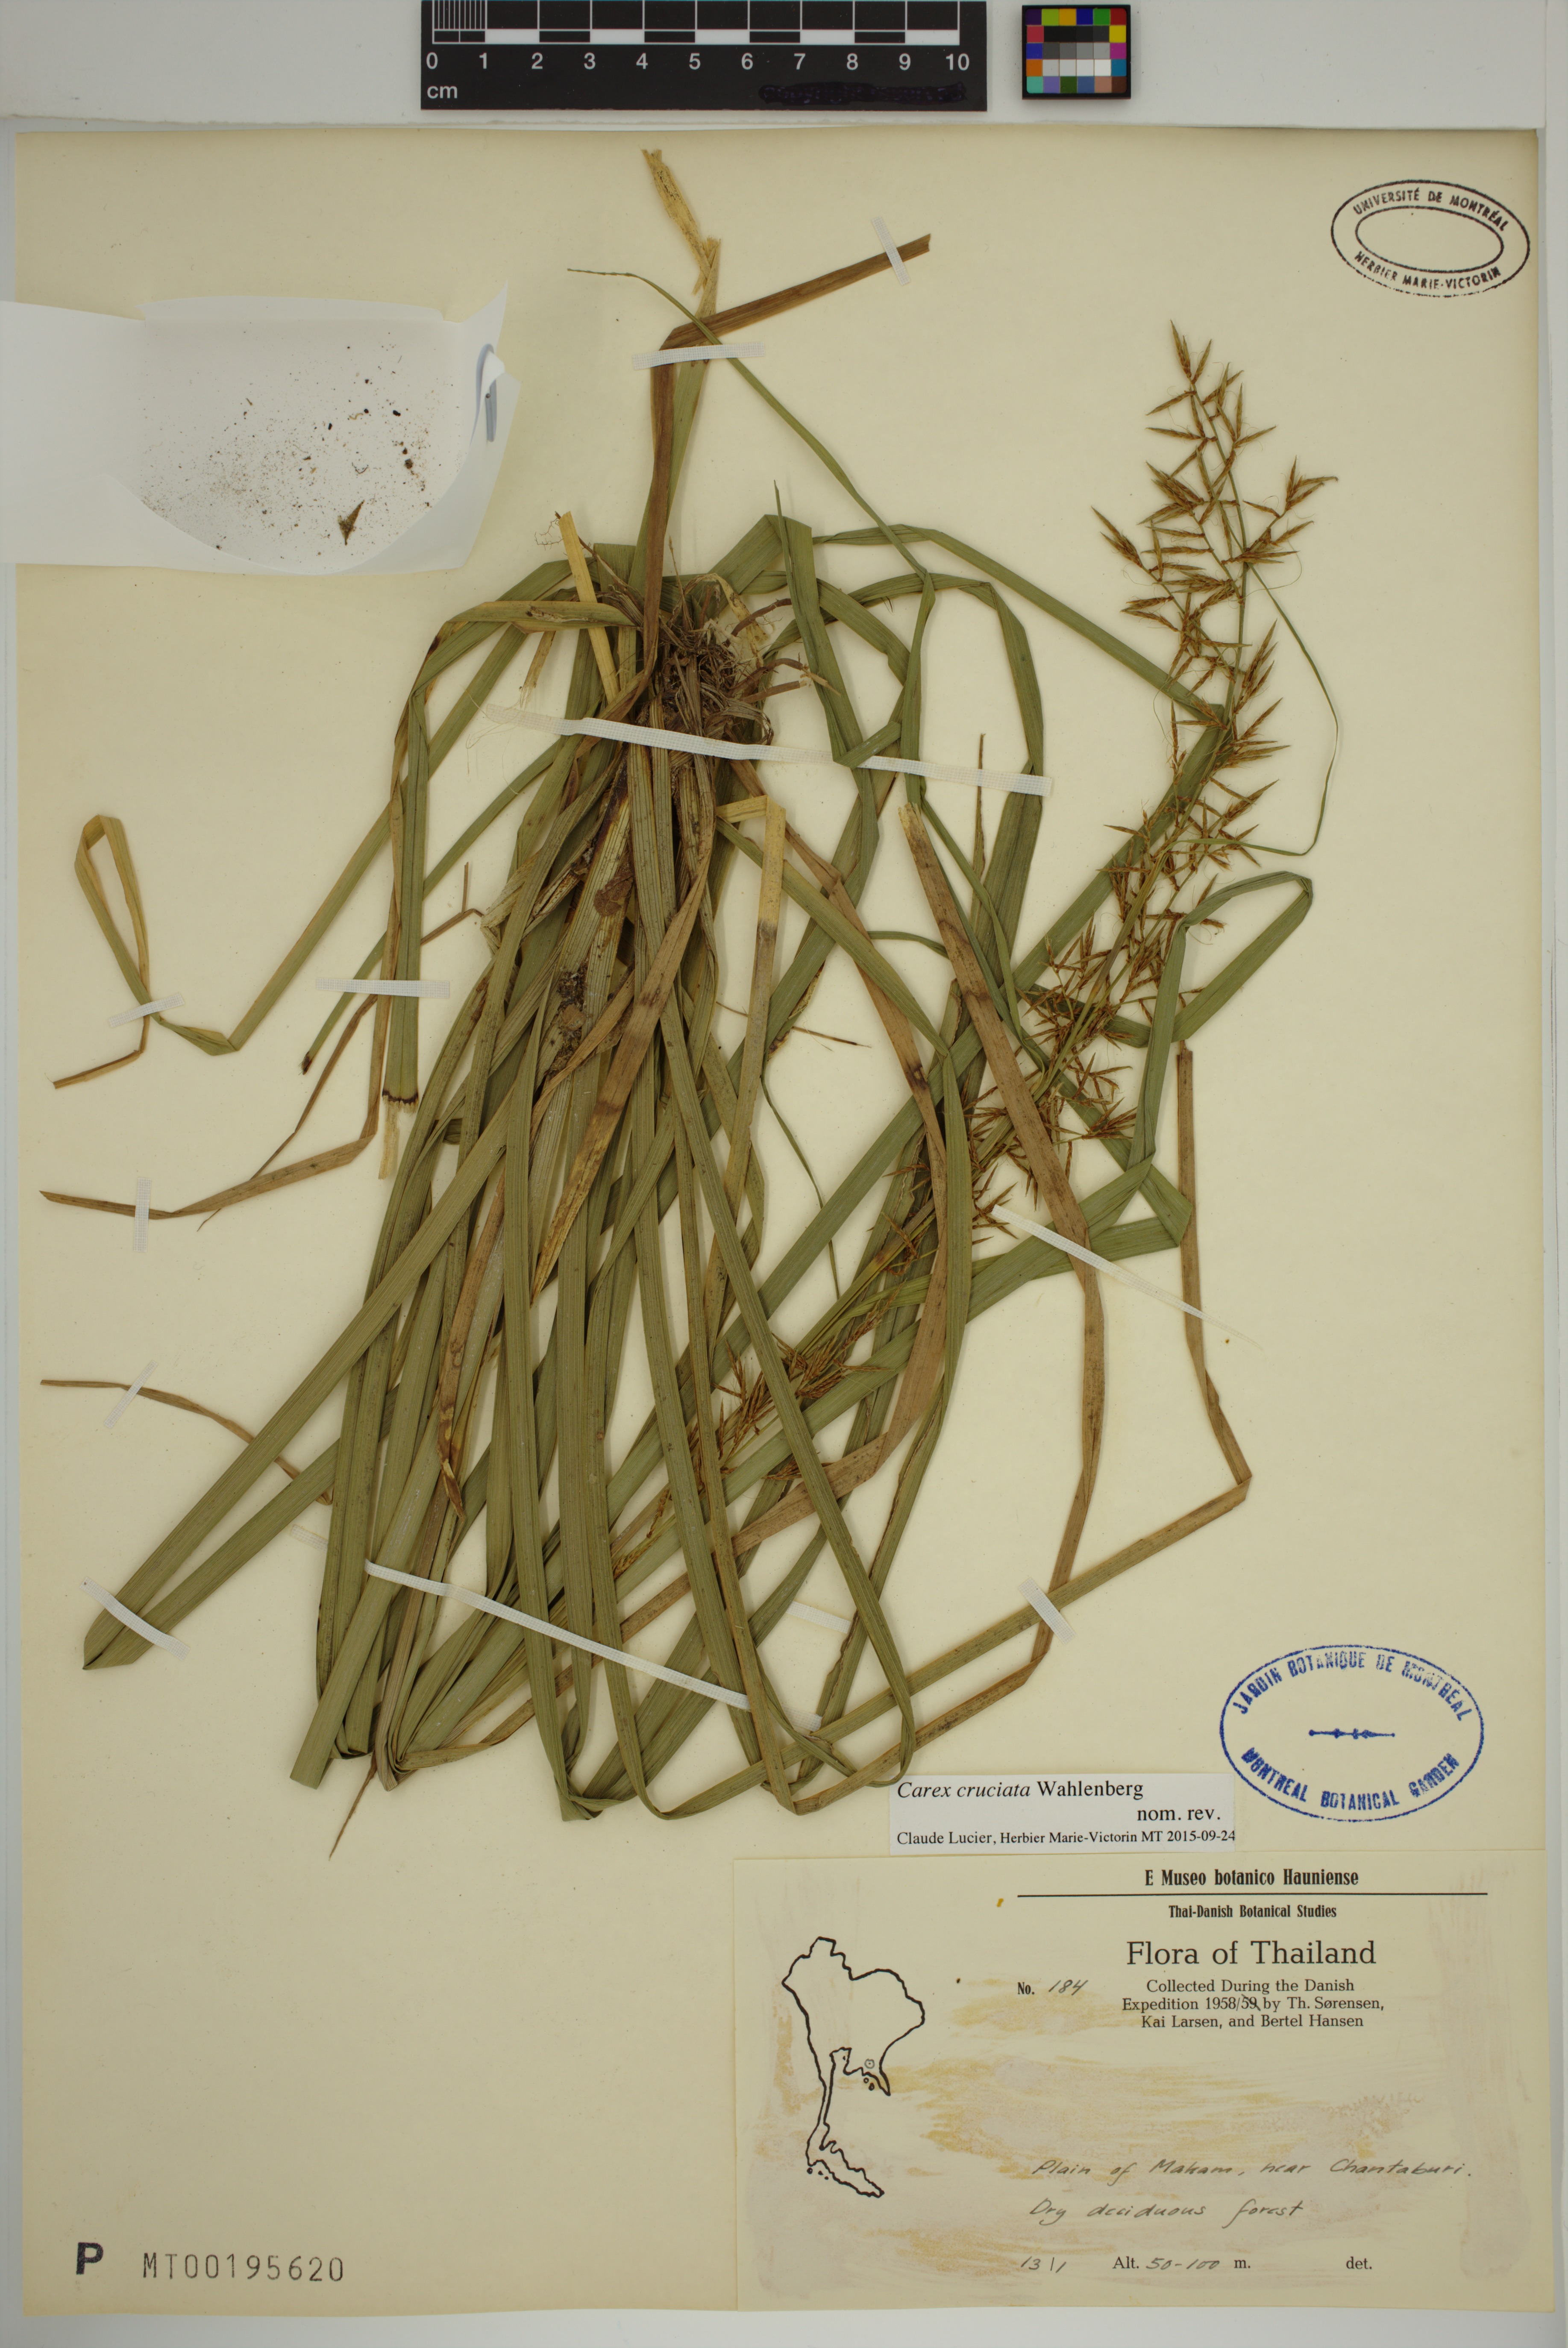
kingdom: Plantae
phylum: Tracheophyta
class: Liliopsida
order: Poales
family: Cyperaceae
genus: Carex
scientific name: Carex cruciata
